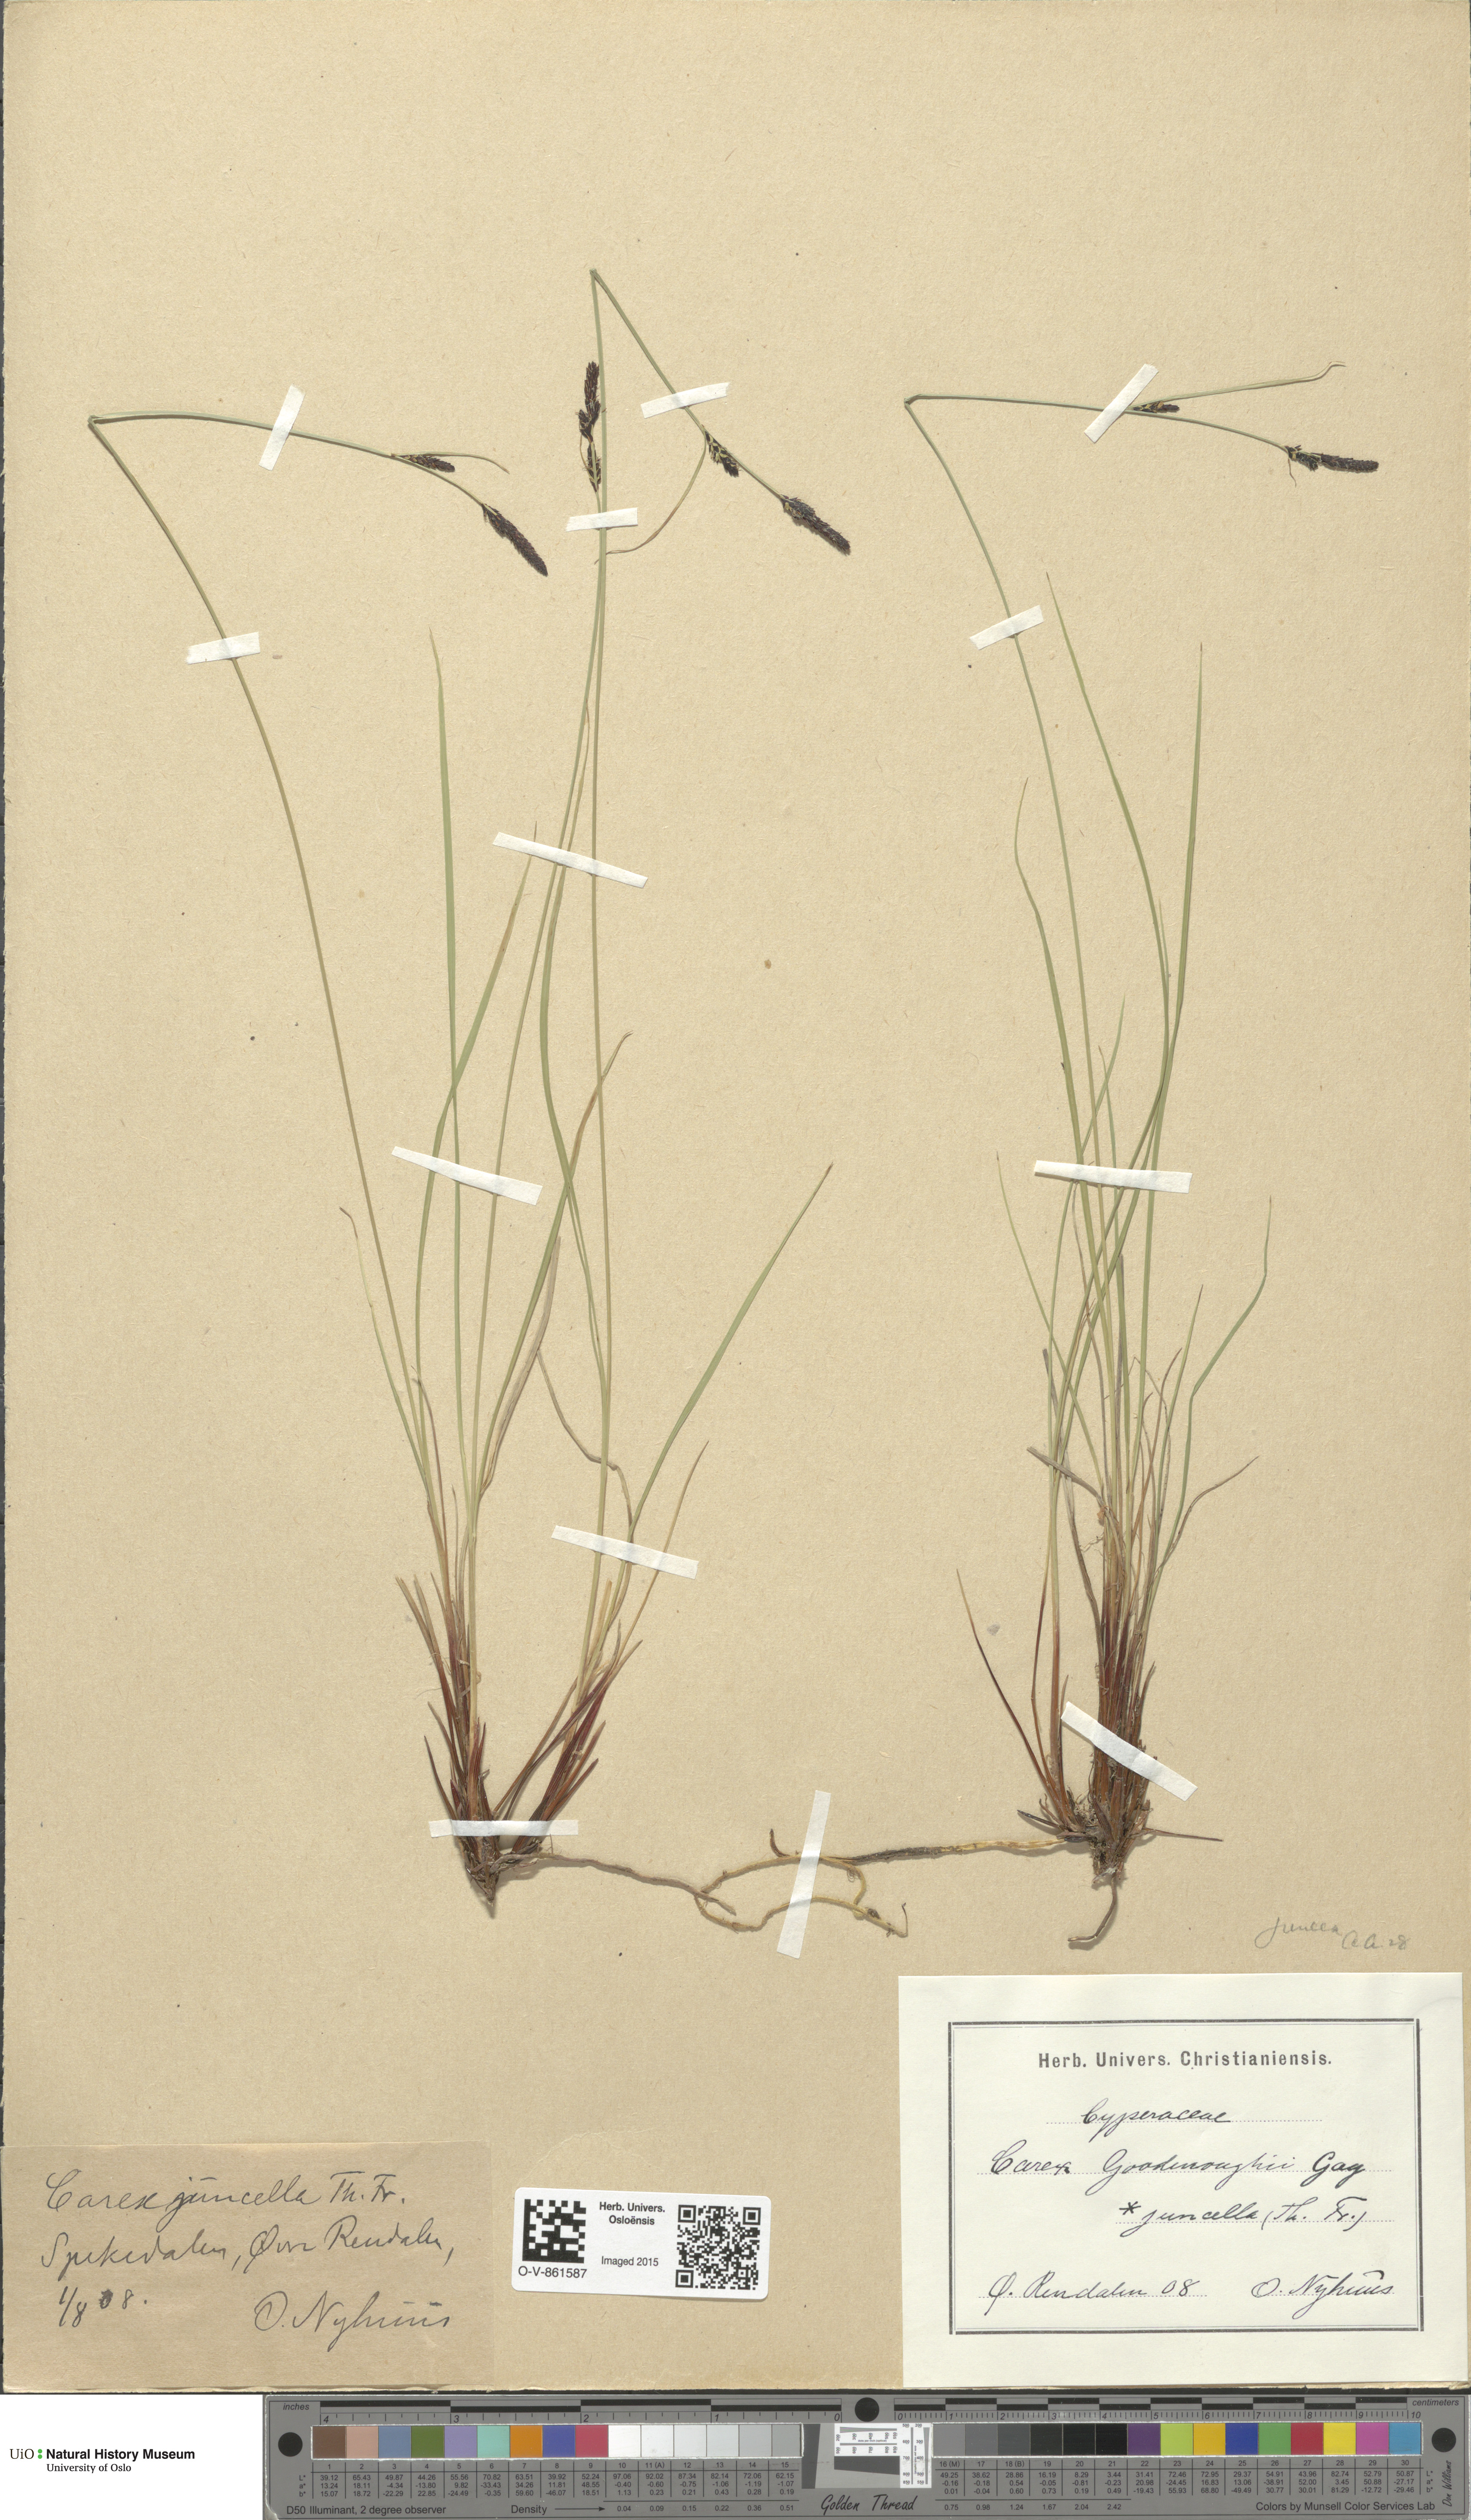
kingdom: Plantae
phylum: Tracheophyta
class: Liliopsida
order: Poales
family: Cyperaceae
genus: Carex
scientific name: Carex nigra
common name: Common sedge
